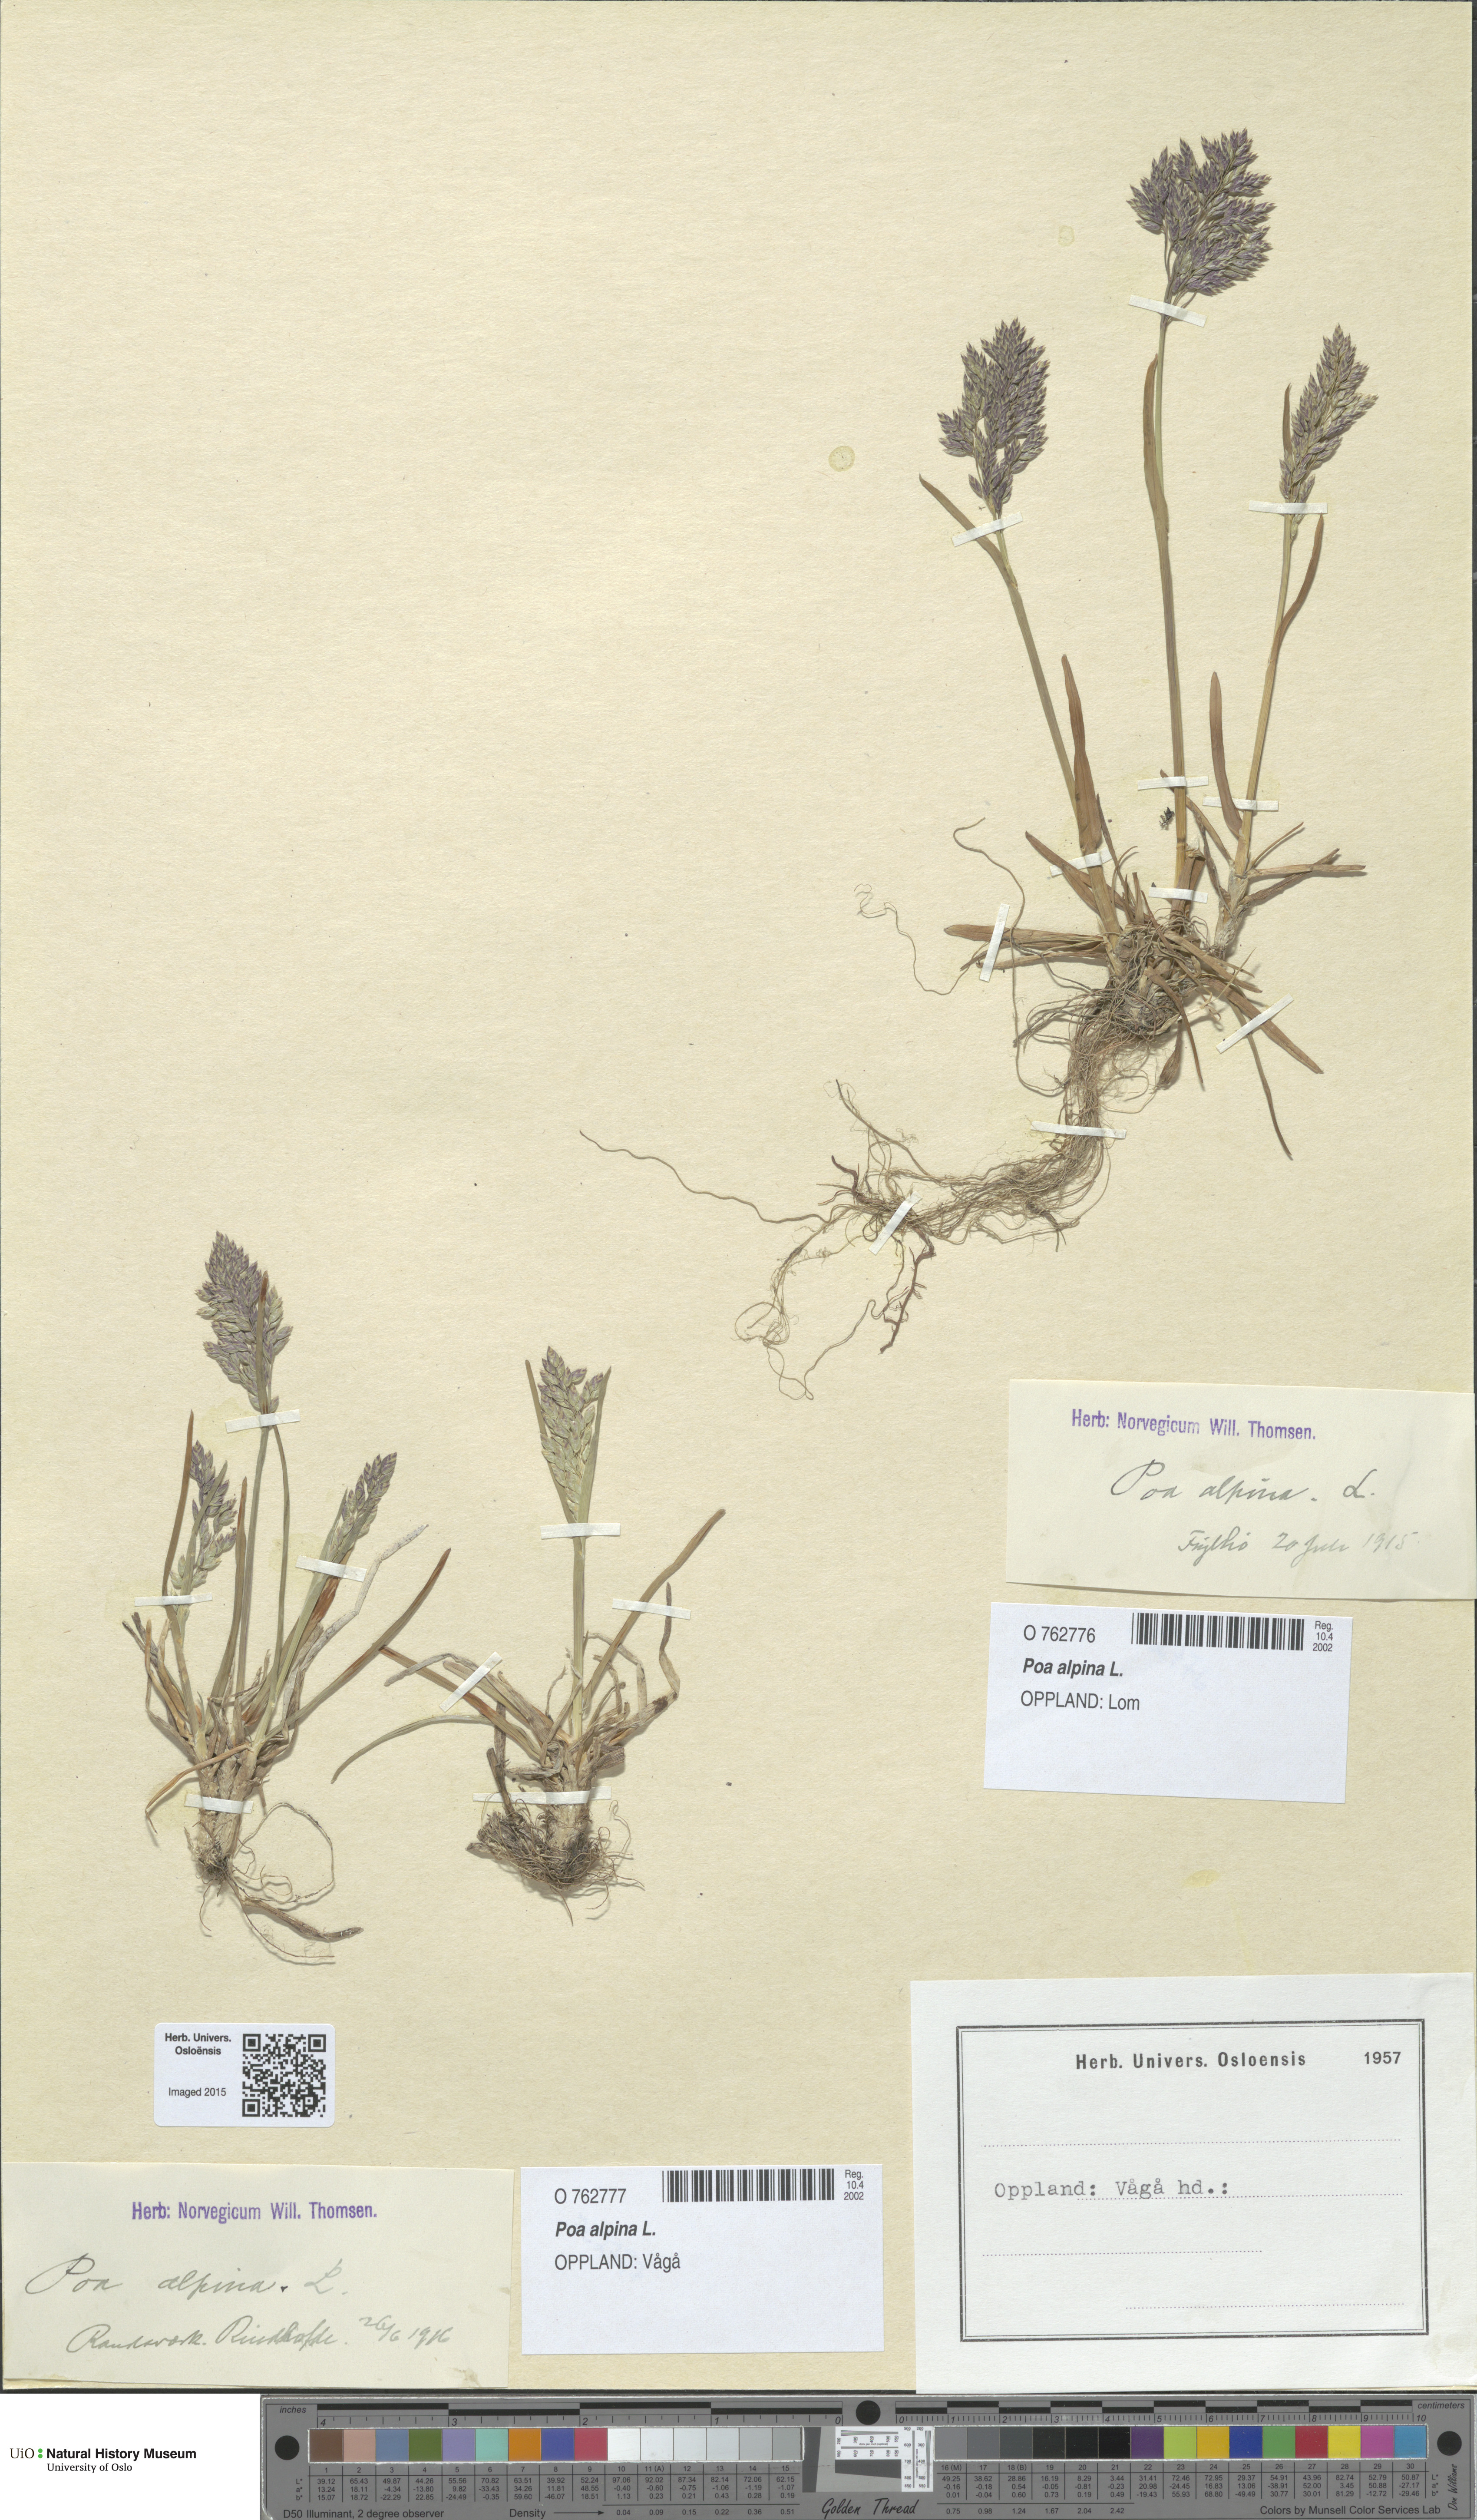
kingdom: Plantae
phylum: Tracheophyta
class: Liliopsida
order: Poales
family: Poaceae
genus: Poa
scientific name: Poa alpina
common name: Alpine bluegrass
